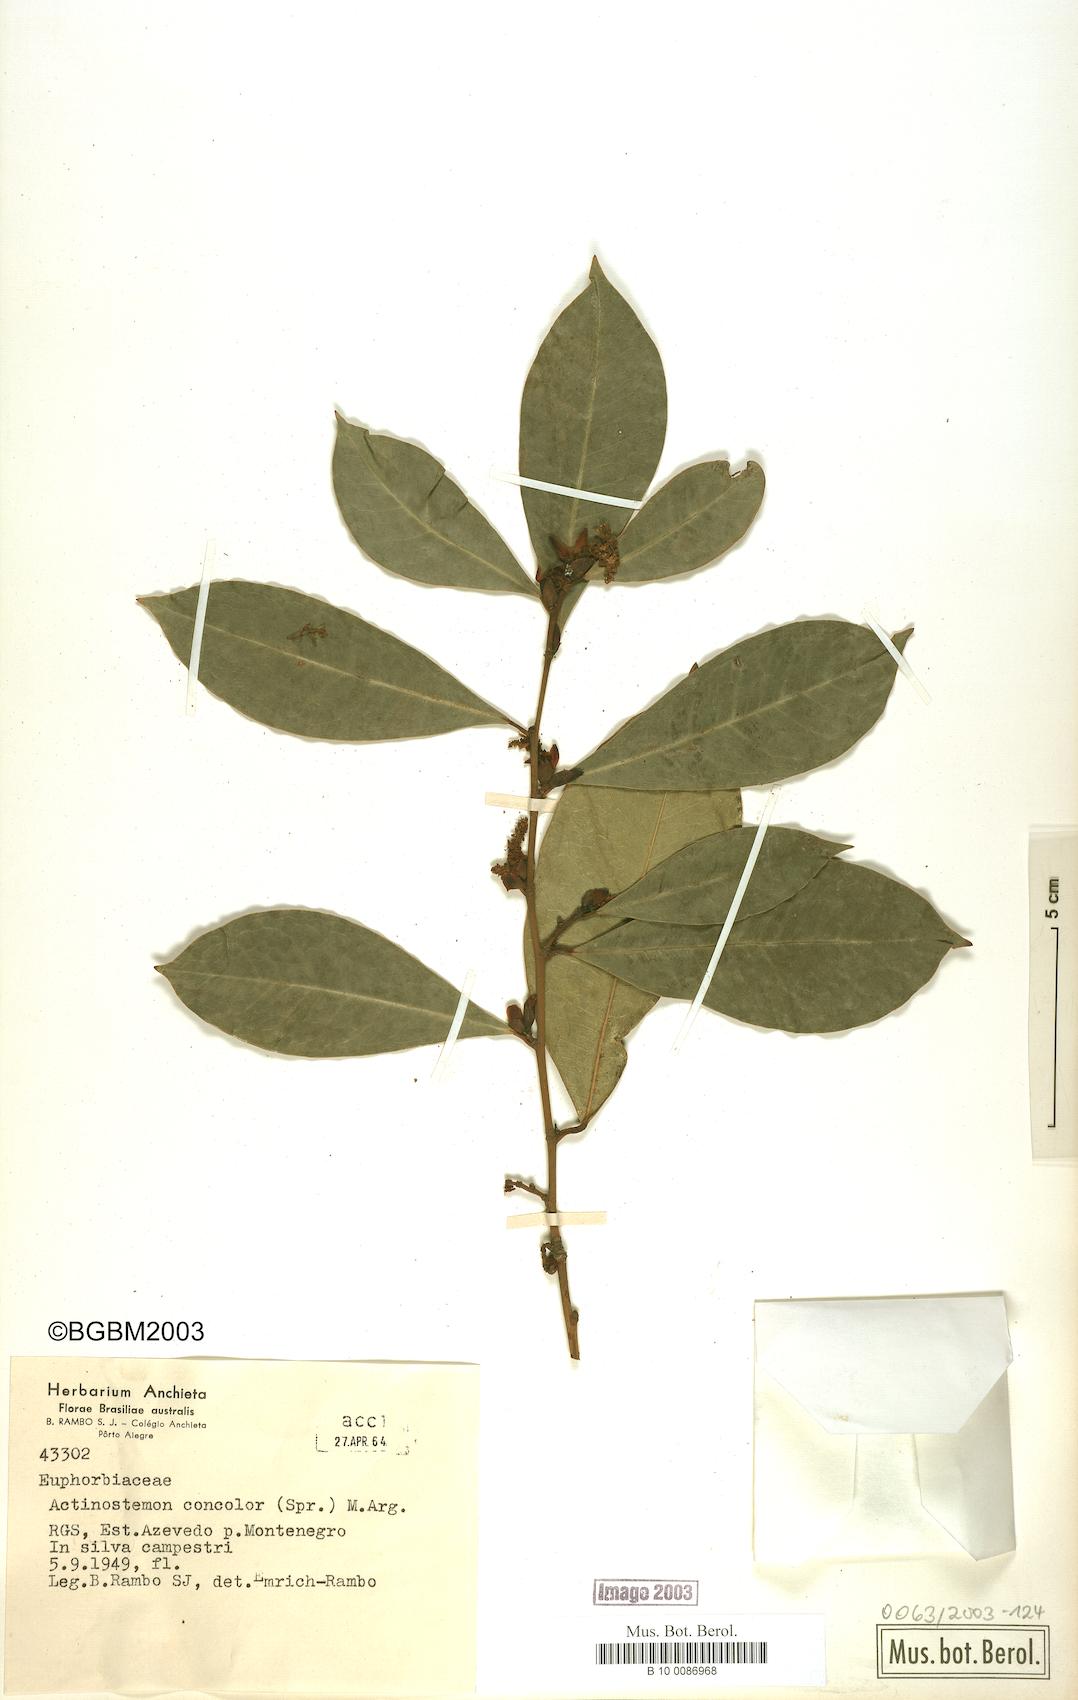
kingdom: Plantae
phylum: Tracheophyta
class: Magnoliopsida
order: Malpighiales
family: Euphorbiaceae
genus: Actinostemon
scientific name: Actinostemon concolor
